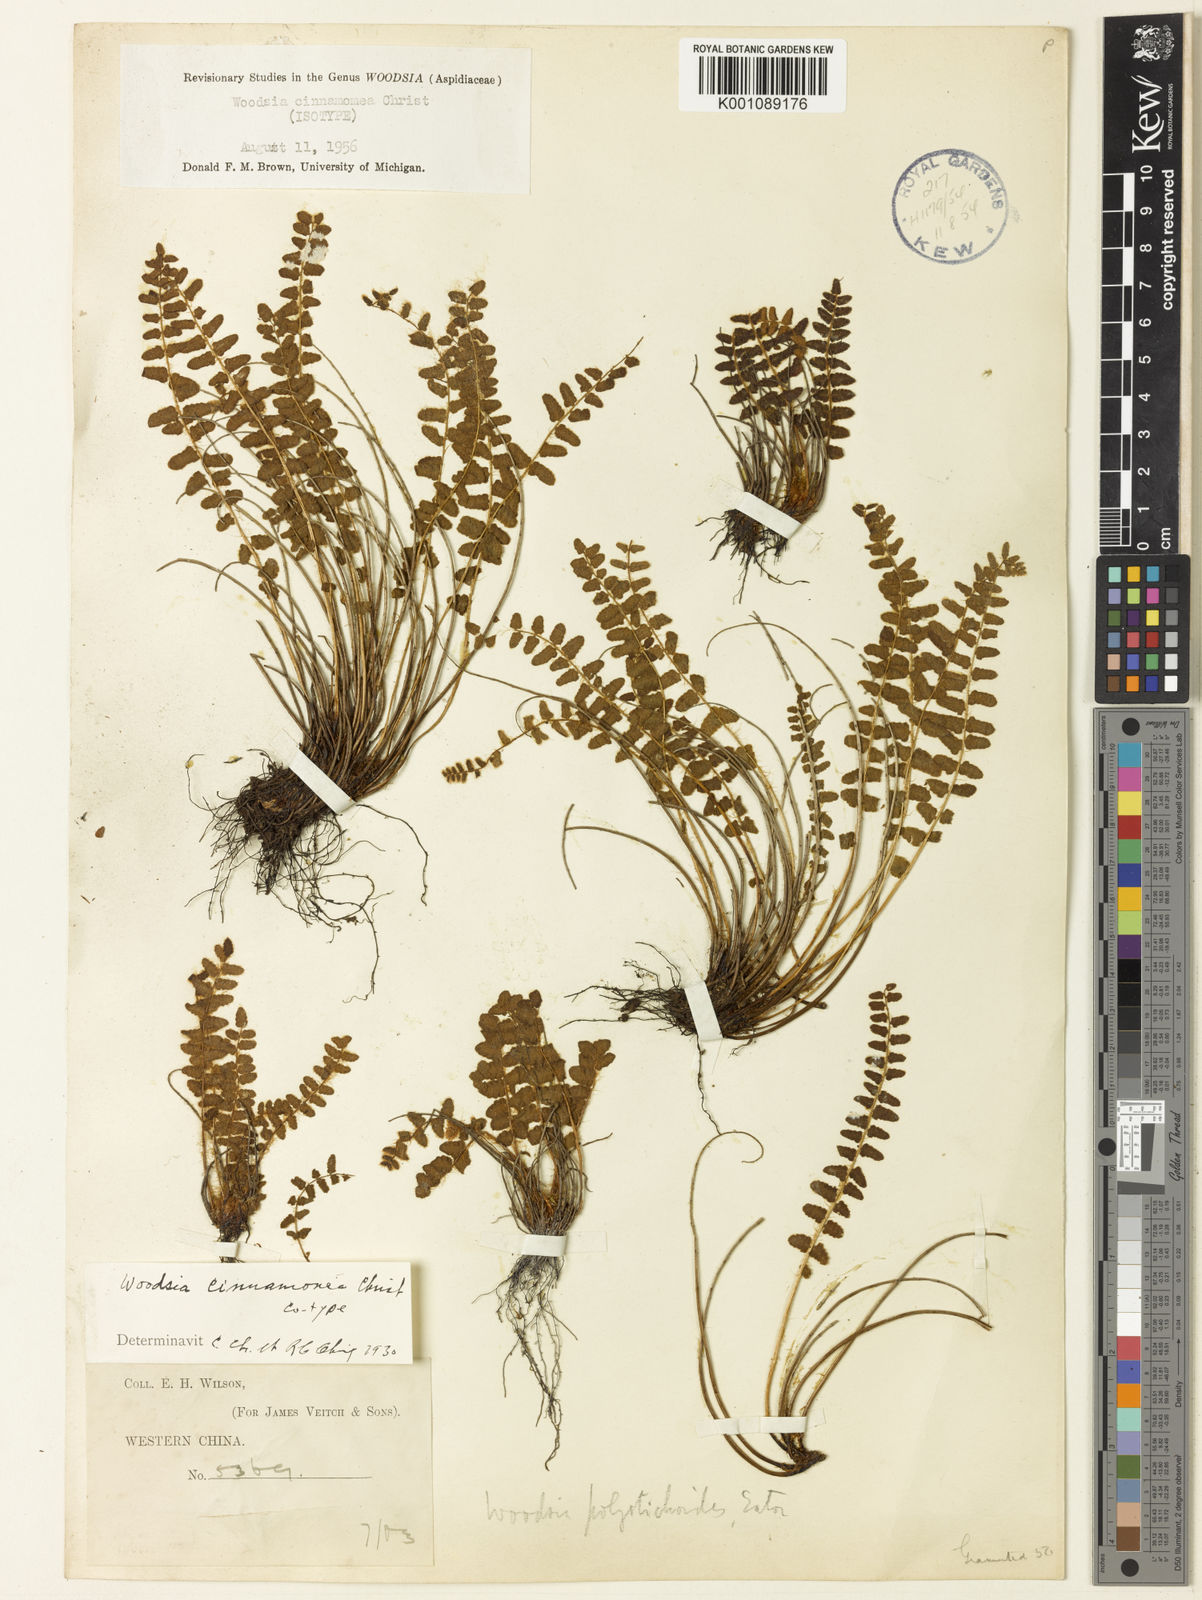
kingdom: Plantae
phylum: Tracheophyta
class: Polypodiopsida
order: Polypodiales
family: Woodsiaceae
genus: Woodsia
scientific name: Woodsia cinnamomea
